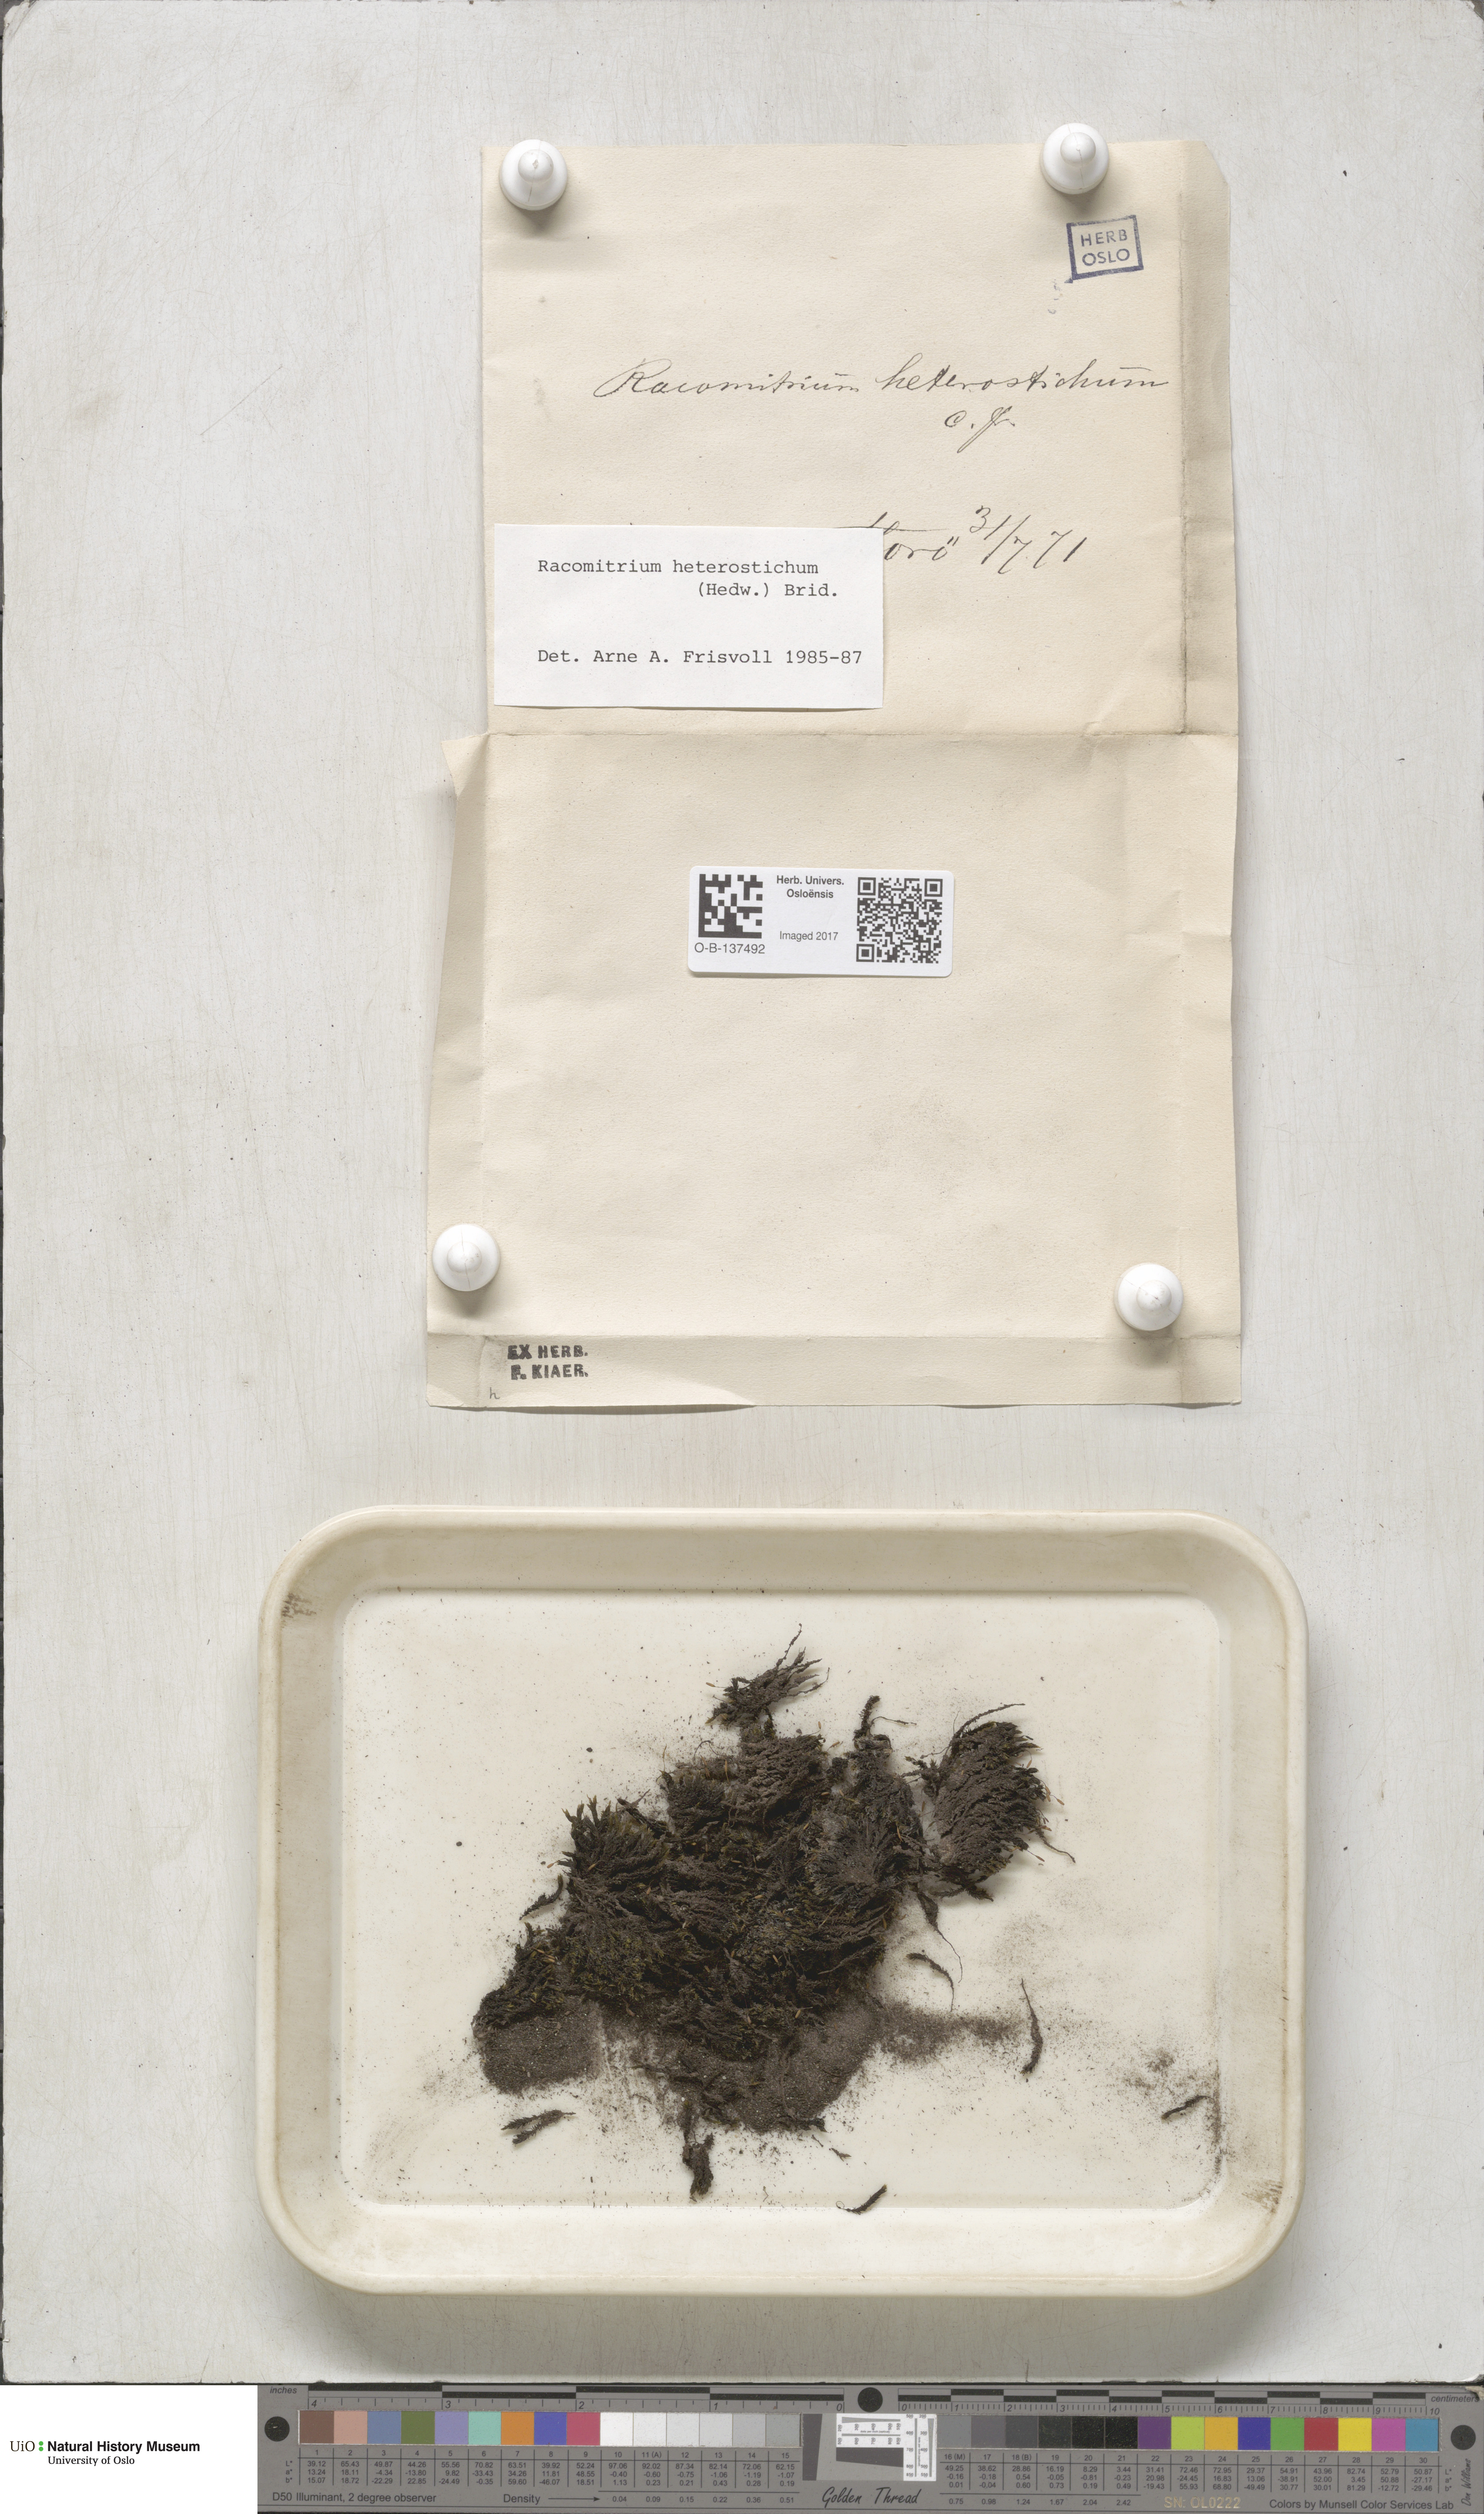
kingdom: Plantae
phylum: Bryophyta
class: Bryopsida
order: Grimmiales
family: Grimmiaceae
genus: Bucklandiella
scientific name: Bucklandiella heterosticha
